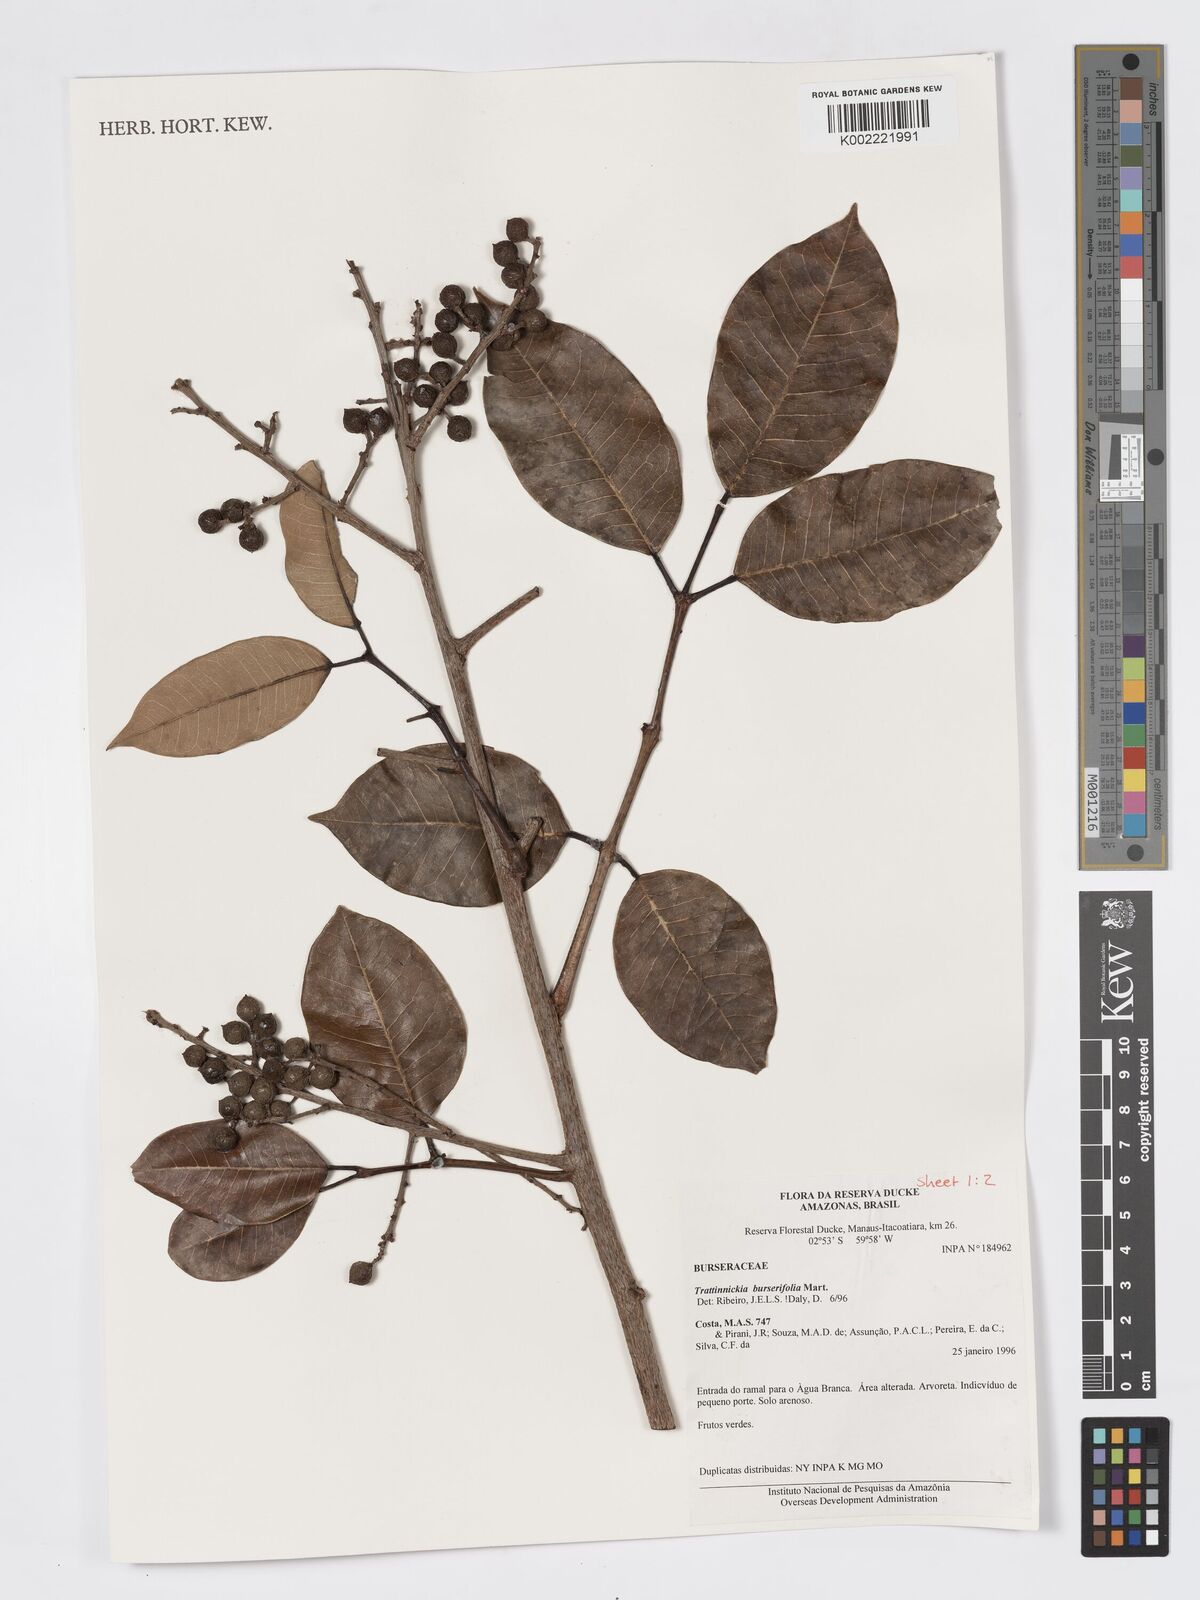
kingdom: Plantae
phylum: Tracheophyta
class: Magnoliopsida
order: Sapindales
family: Burseraceae
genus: Trattinnickia
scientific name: Trattinnickia burserifolia
